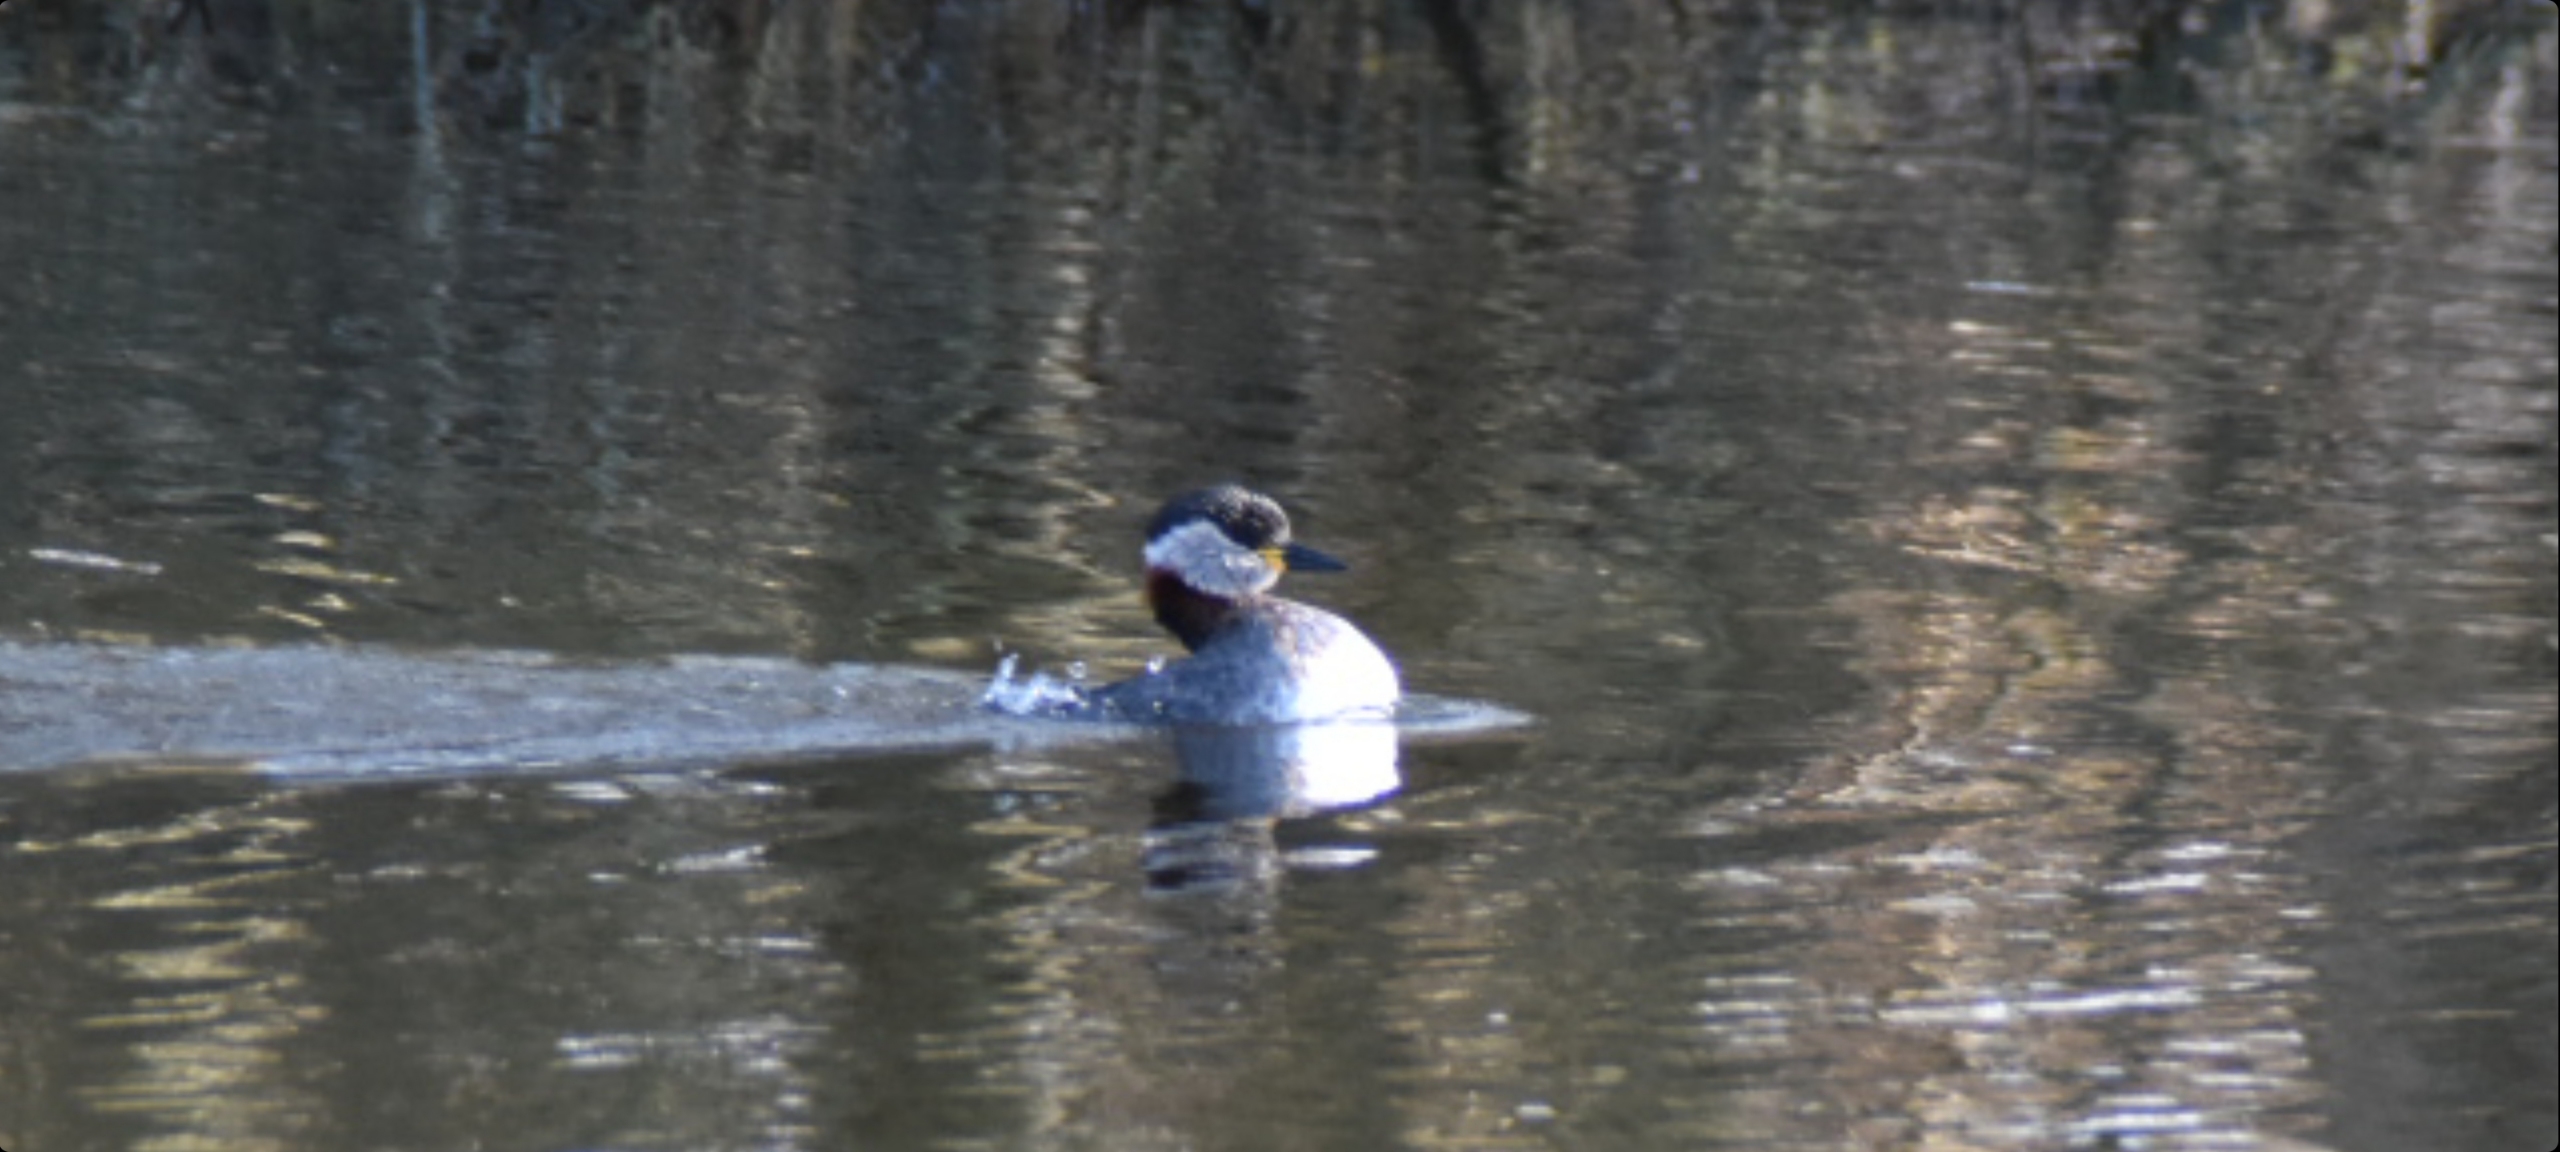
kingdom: Animalia
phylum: Chordata
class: Aves
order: Podicipediformes
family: Podicipedidae
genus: Podiceps
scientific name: Podiceps grisegena
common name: Gråstrubet lappedykker
